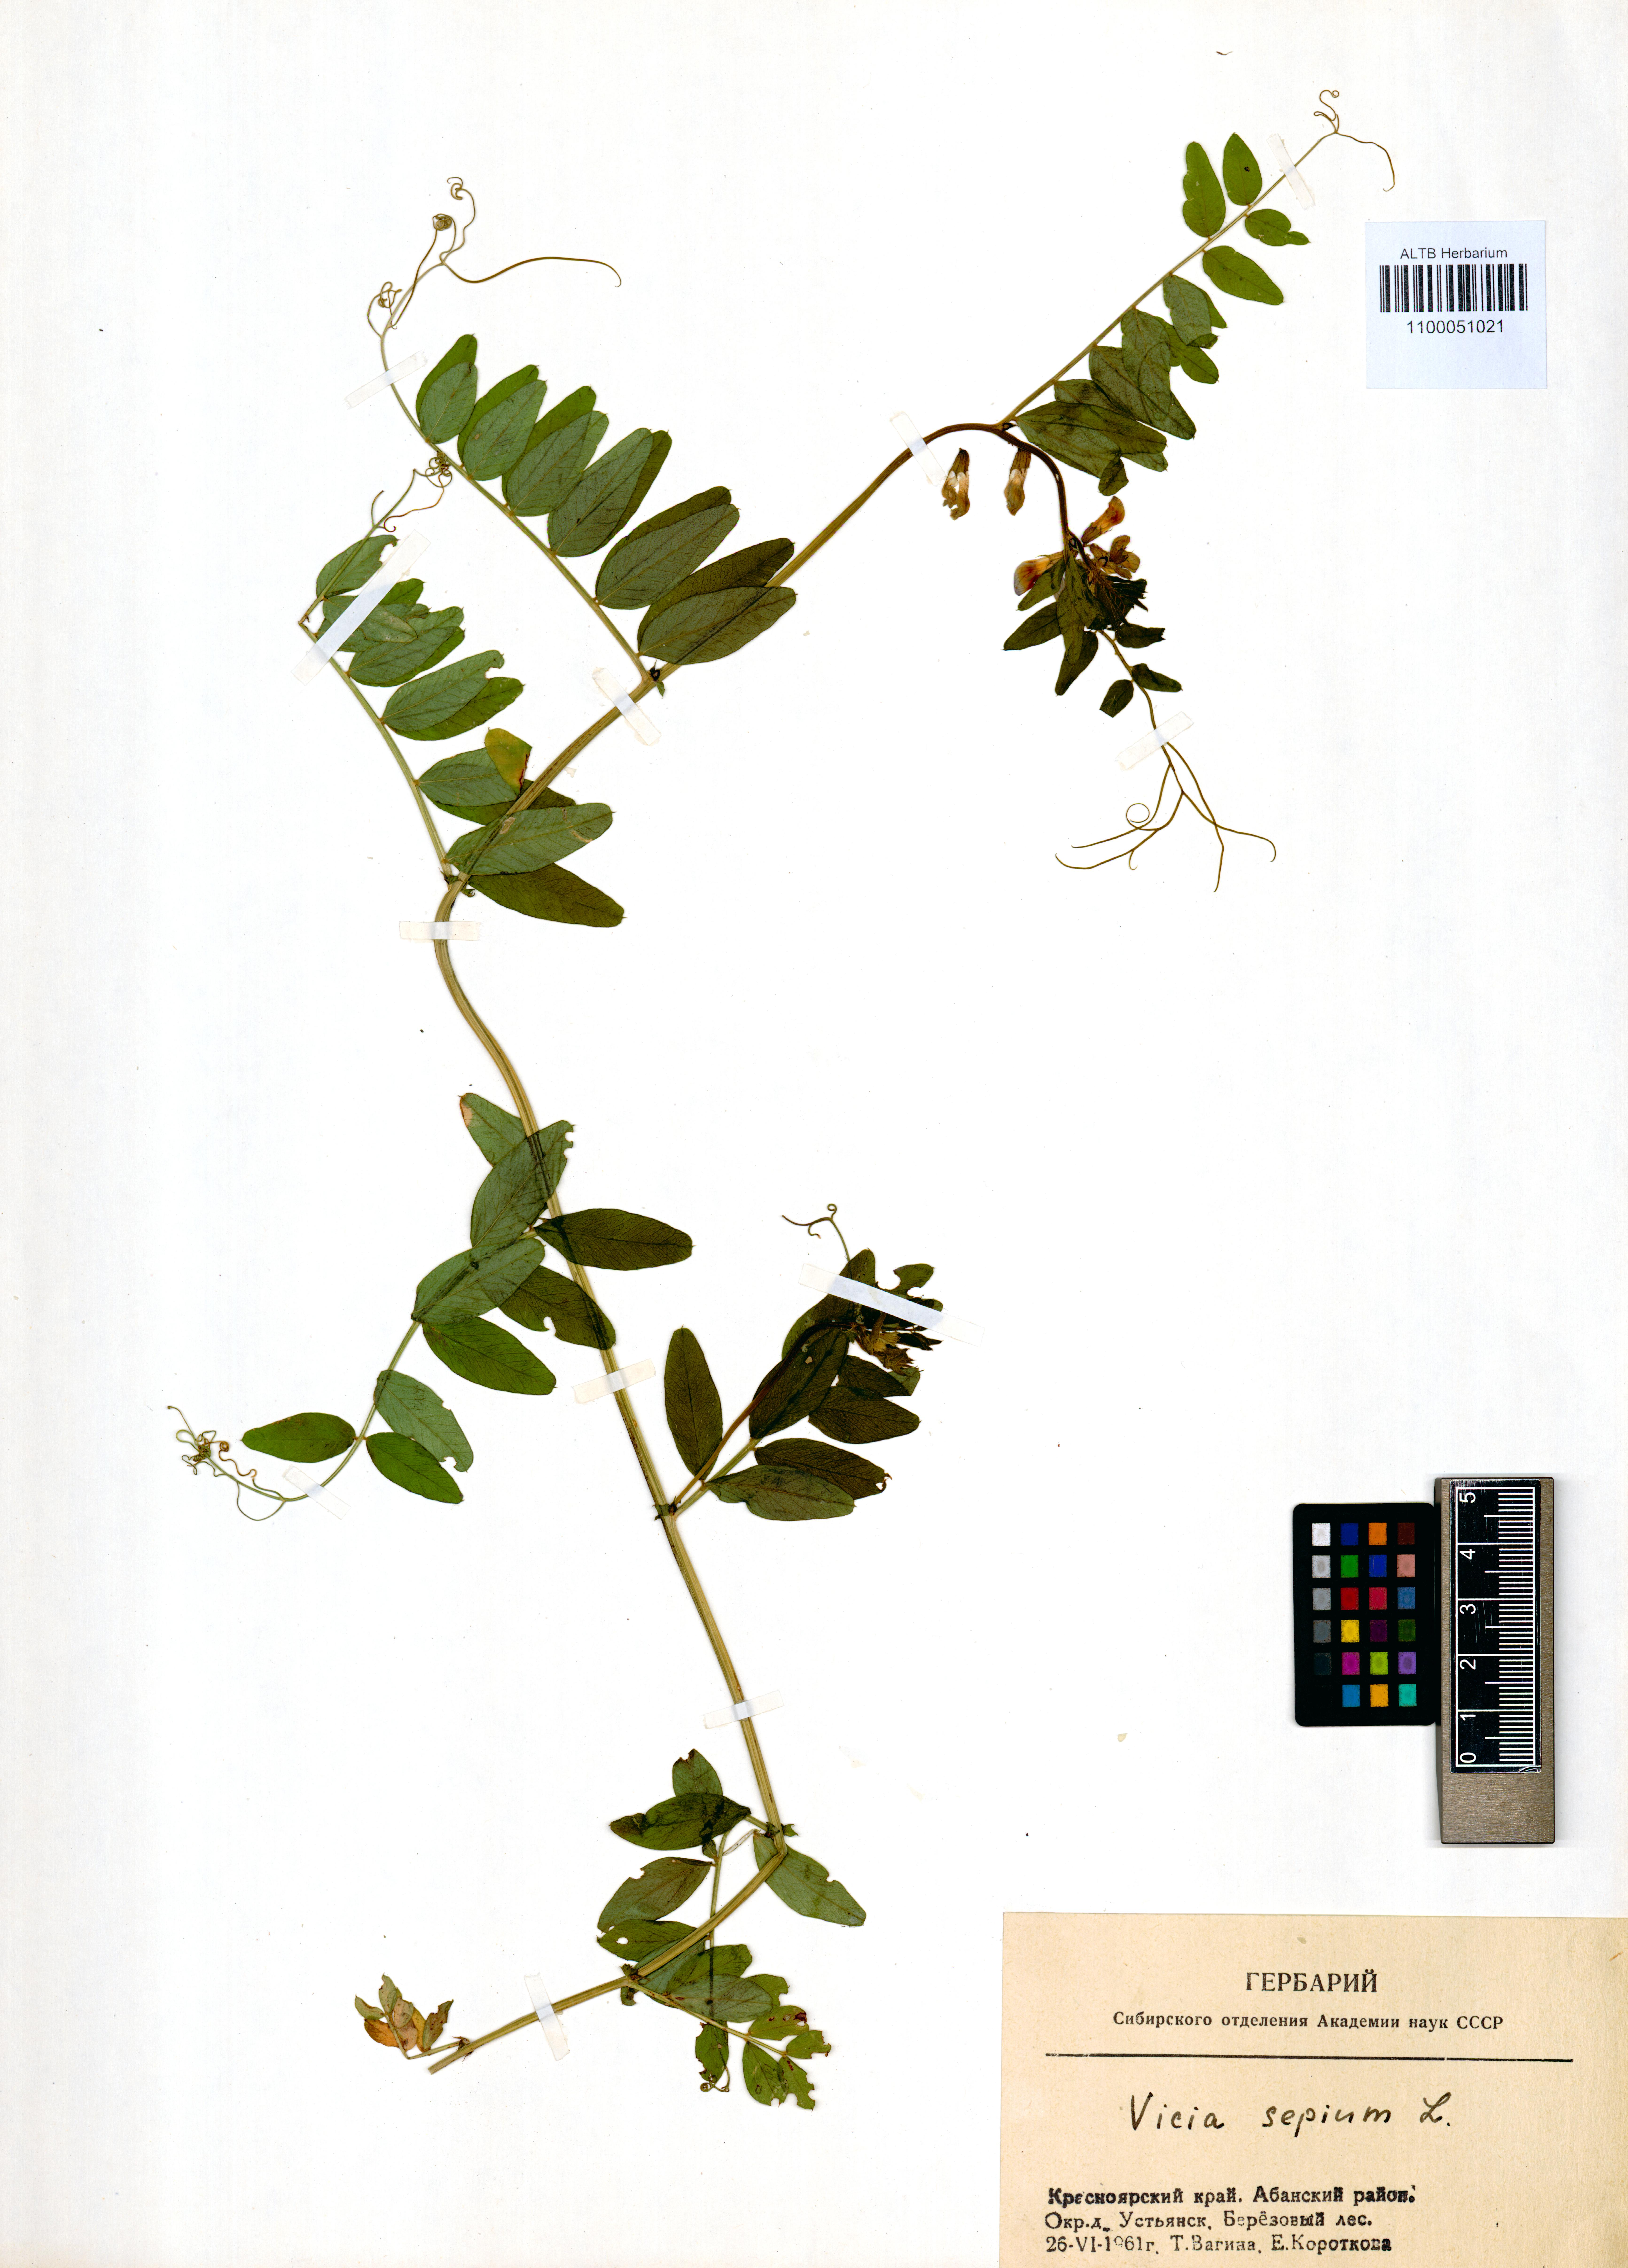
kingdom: Plantae
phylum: Tracheophyta
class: Magnoliopsida
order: Fabales
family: Fabaceae
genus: Vicia
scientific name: Vicia sepium
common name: Bush vetch
